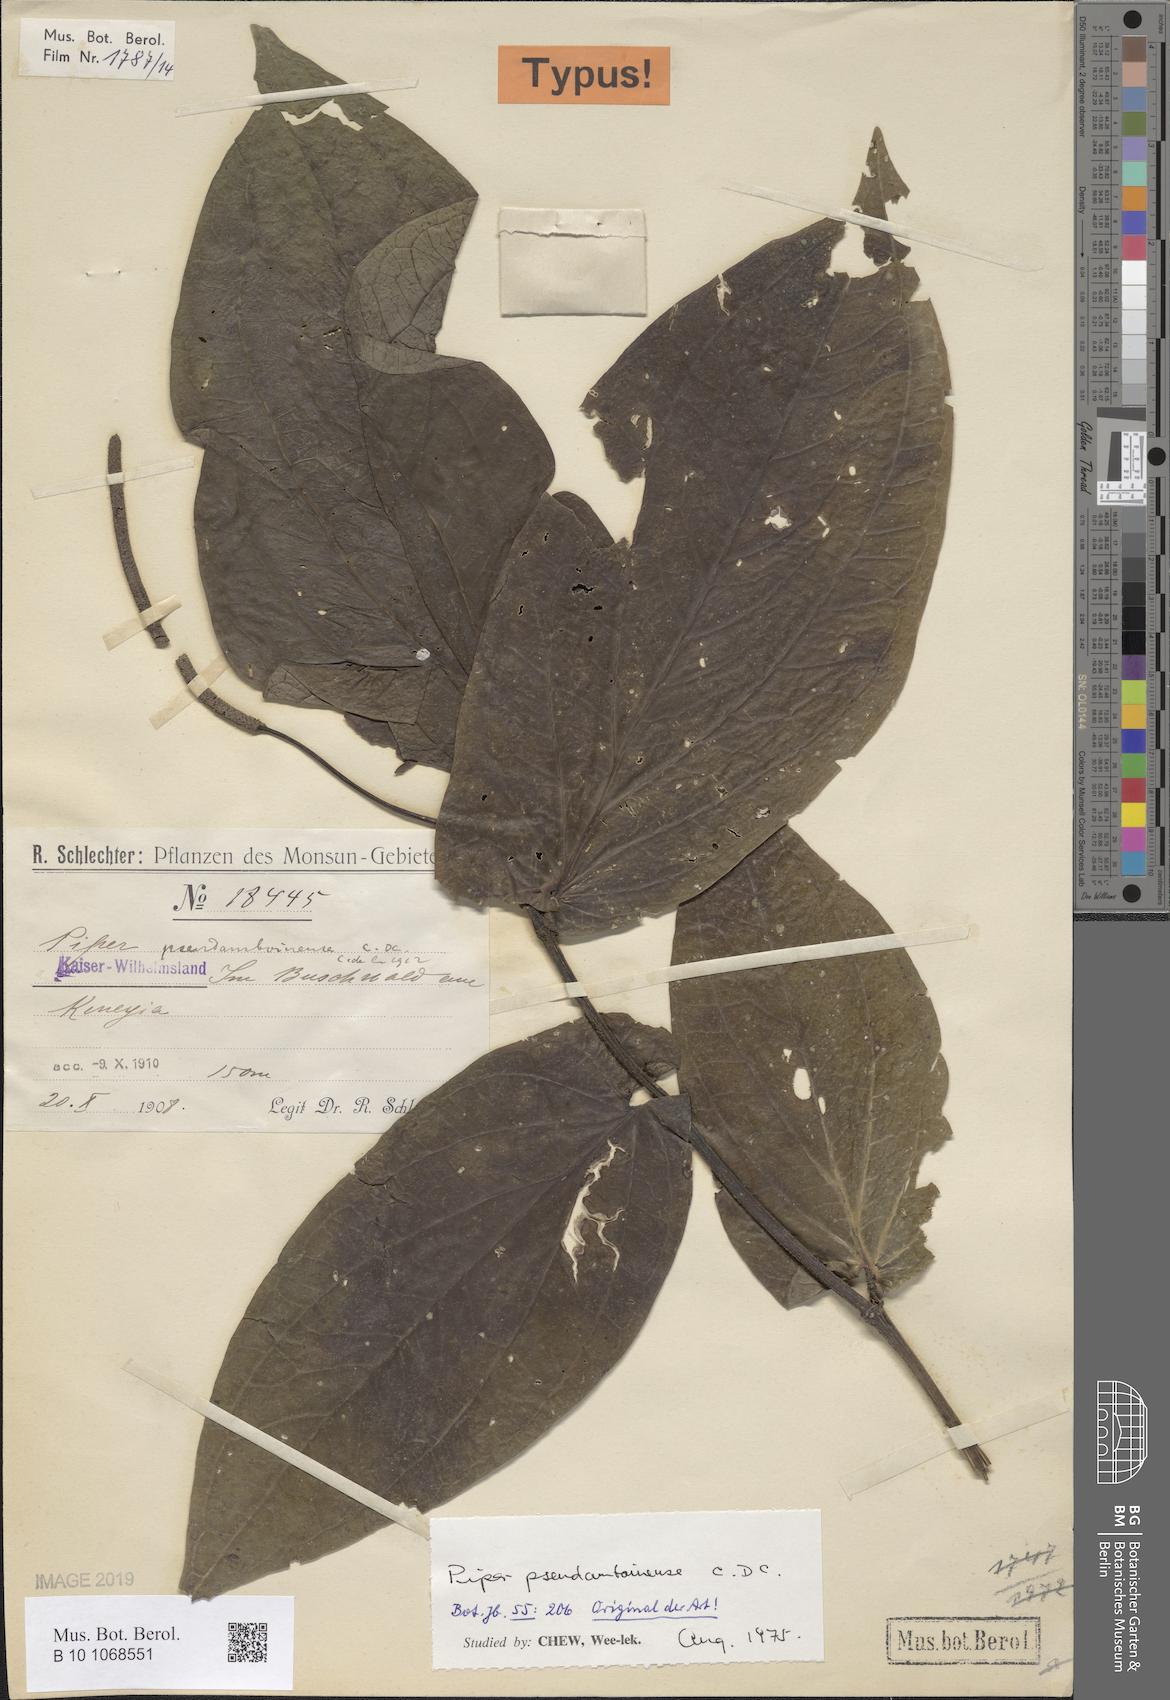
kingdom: Plantae
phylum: Tracheophyta
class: Magnoliopsida
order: Piperales
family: Piperaceae
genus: Piper
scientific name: Piper pseudamboinense
